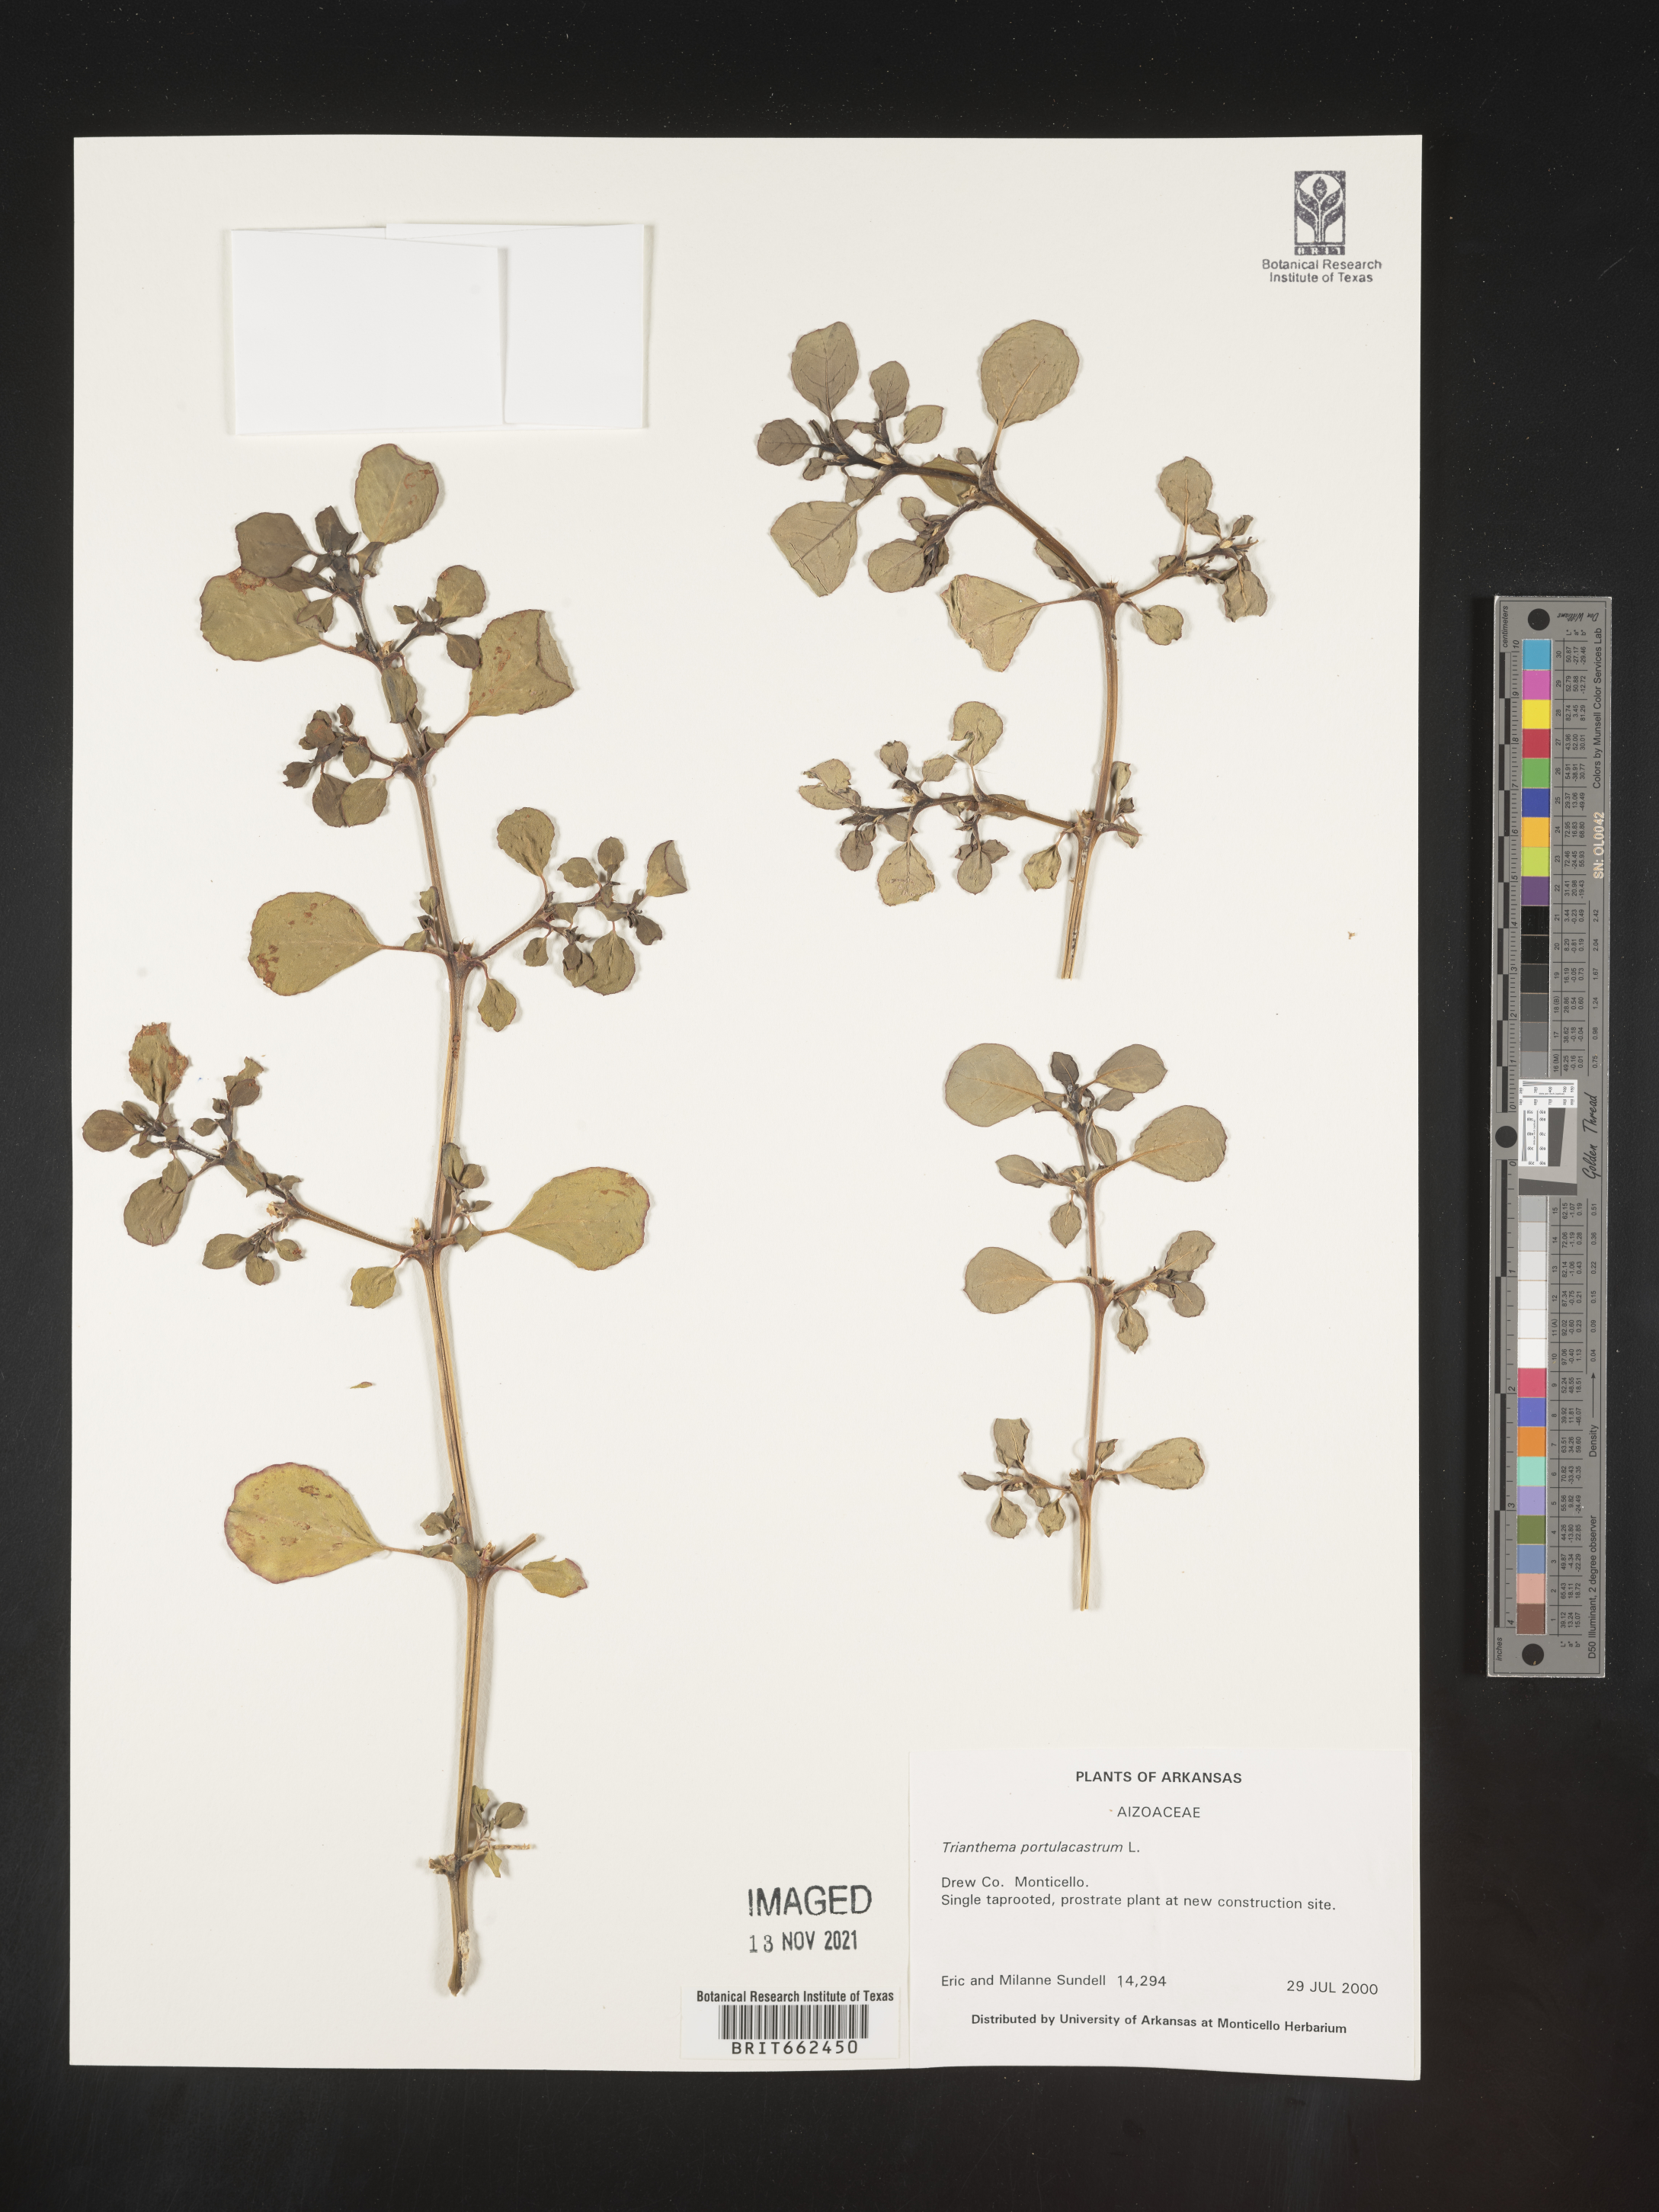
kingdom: Plantae
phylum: Tracheophyta
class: Magnoliopsida
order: Caryophyllales
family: Aizoaceae
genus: Trianthema
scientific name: Trianthema
